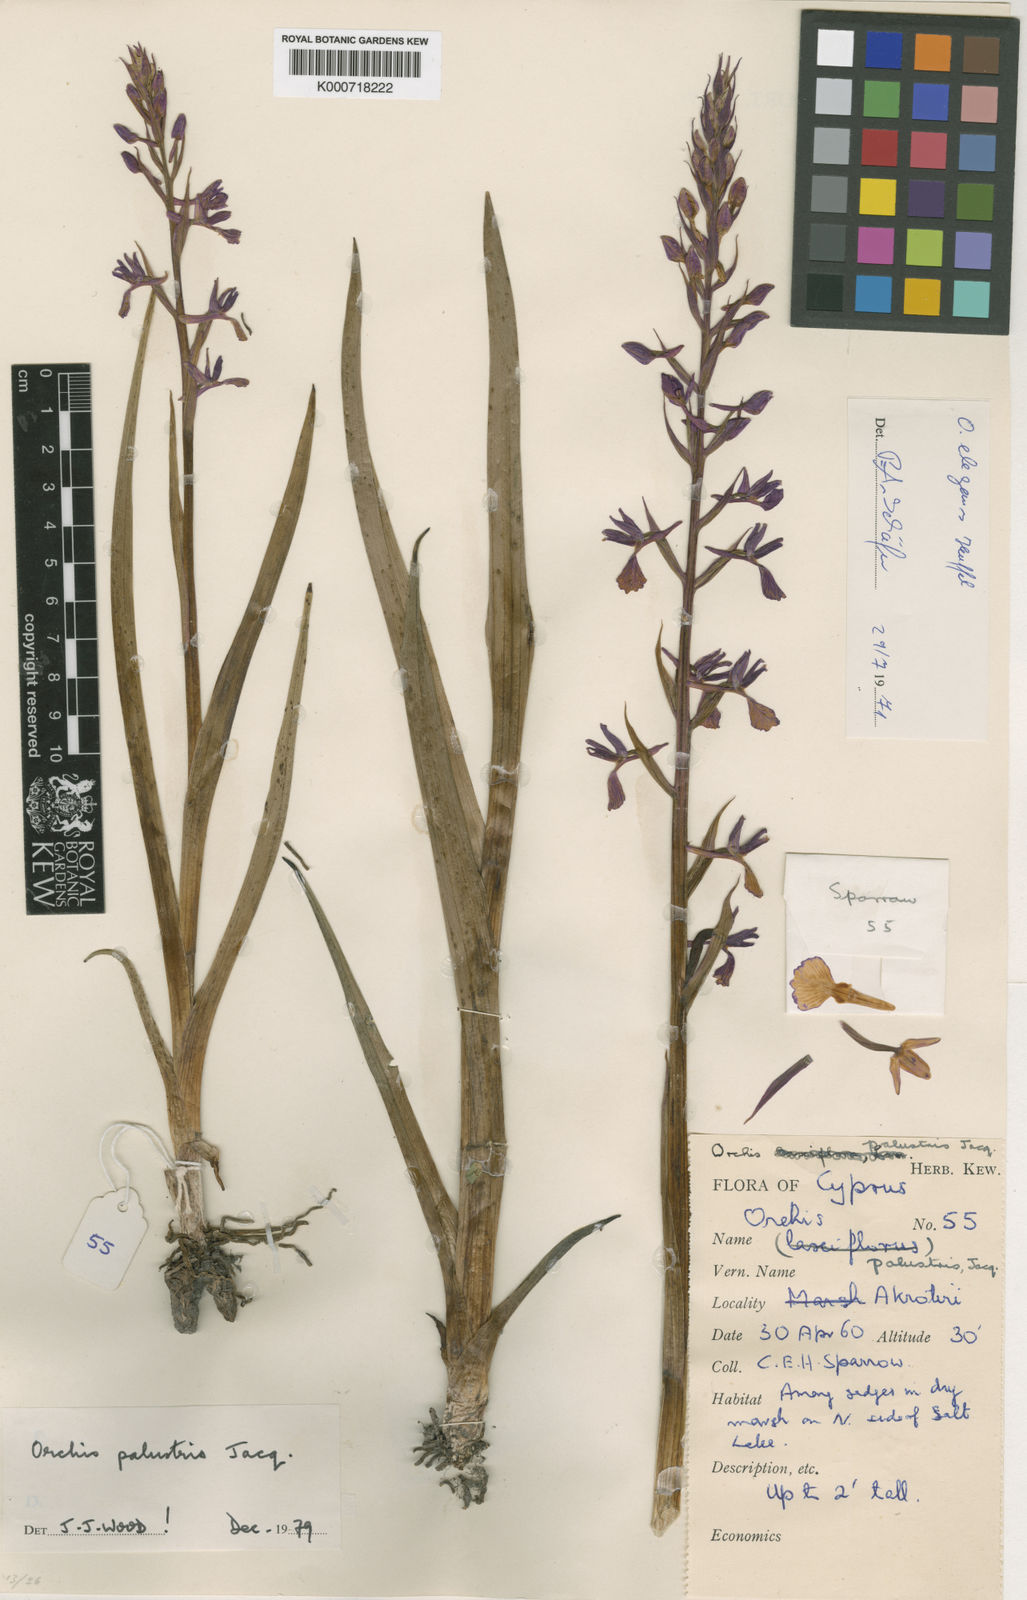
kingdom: Plantae
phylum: Tracheophyta
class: Liliopsida
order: Asparagales
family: Orchidaceae
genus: Anacamptis
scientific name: Anacamptis palustris
